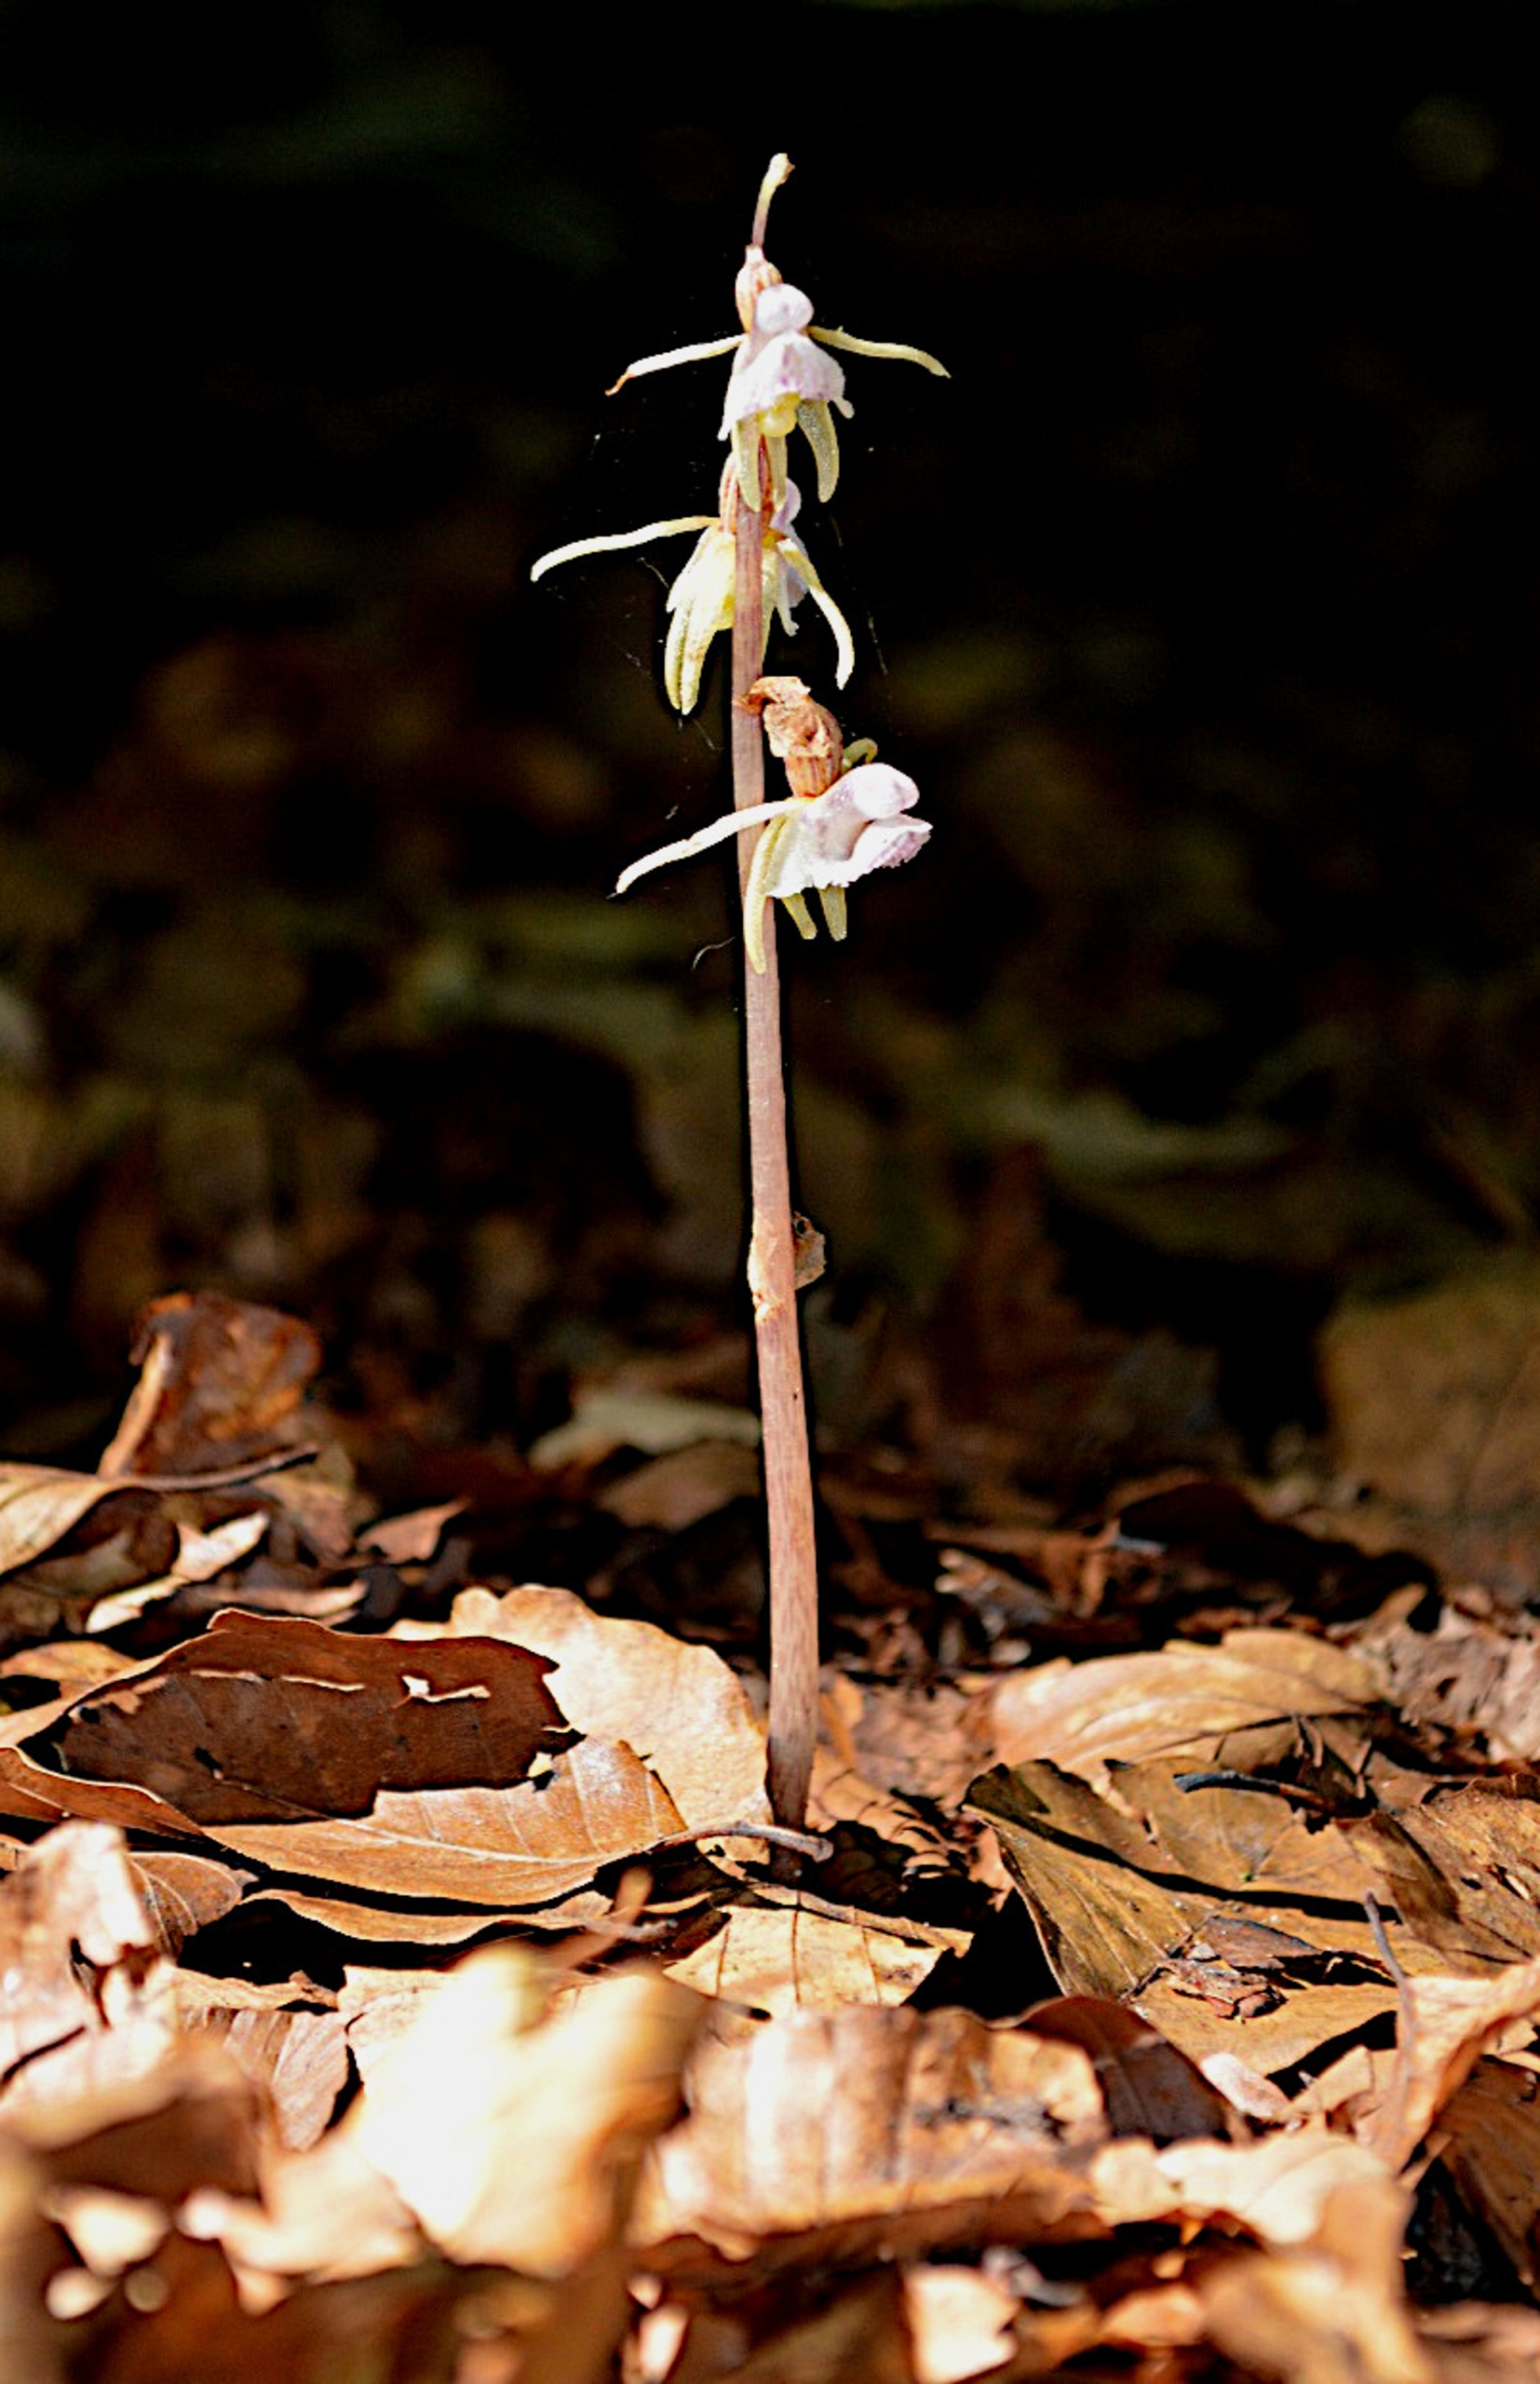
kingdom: Plantae
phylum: Tracheophyta
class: Liliopsida
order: Asparagales
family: Orchidaceae
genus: Epipogium
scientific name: Epipogium aphyllum
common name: Knælæbe
